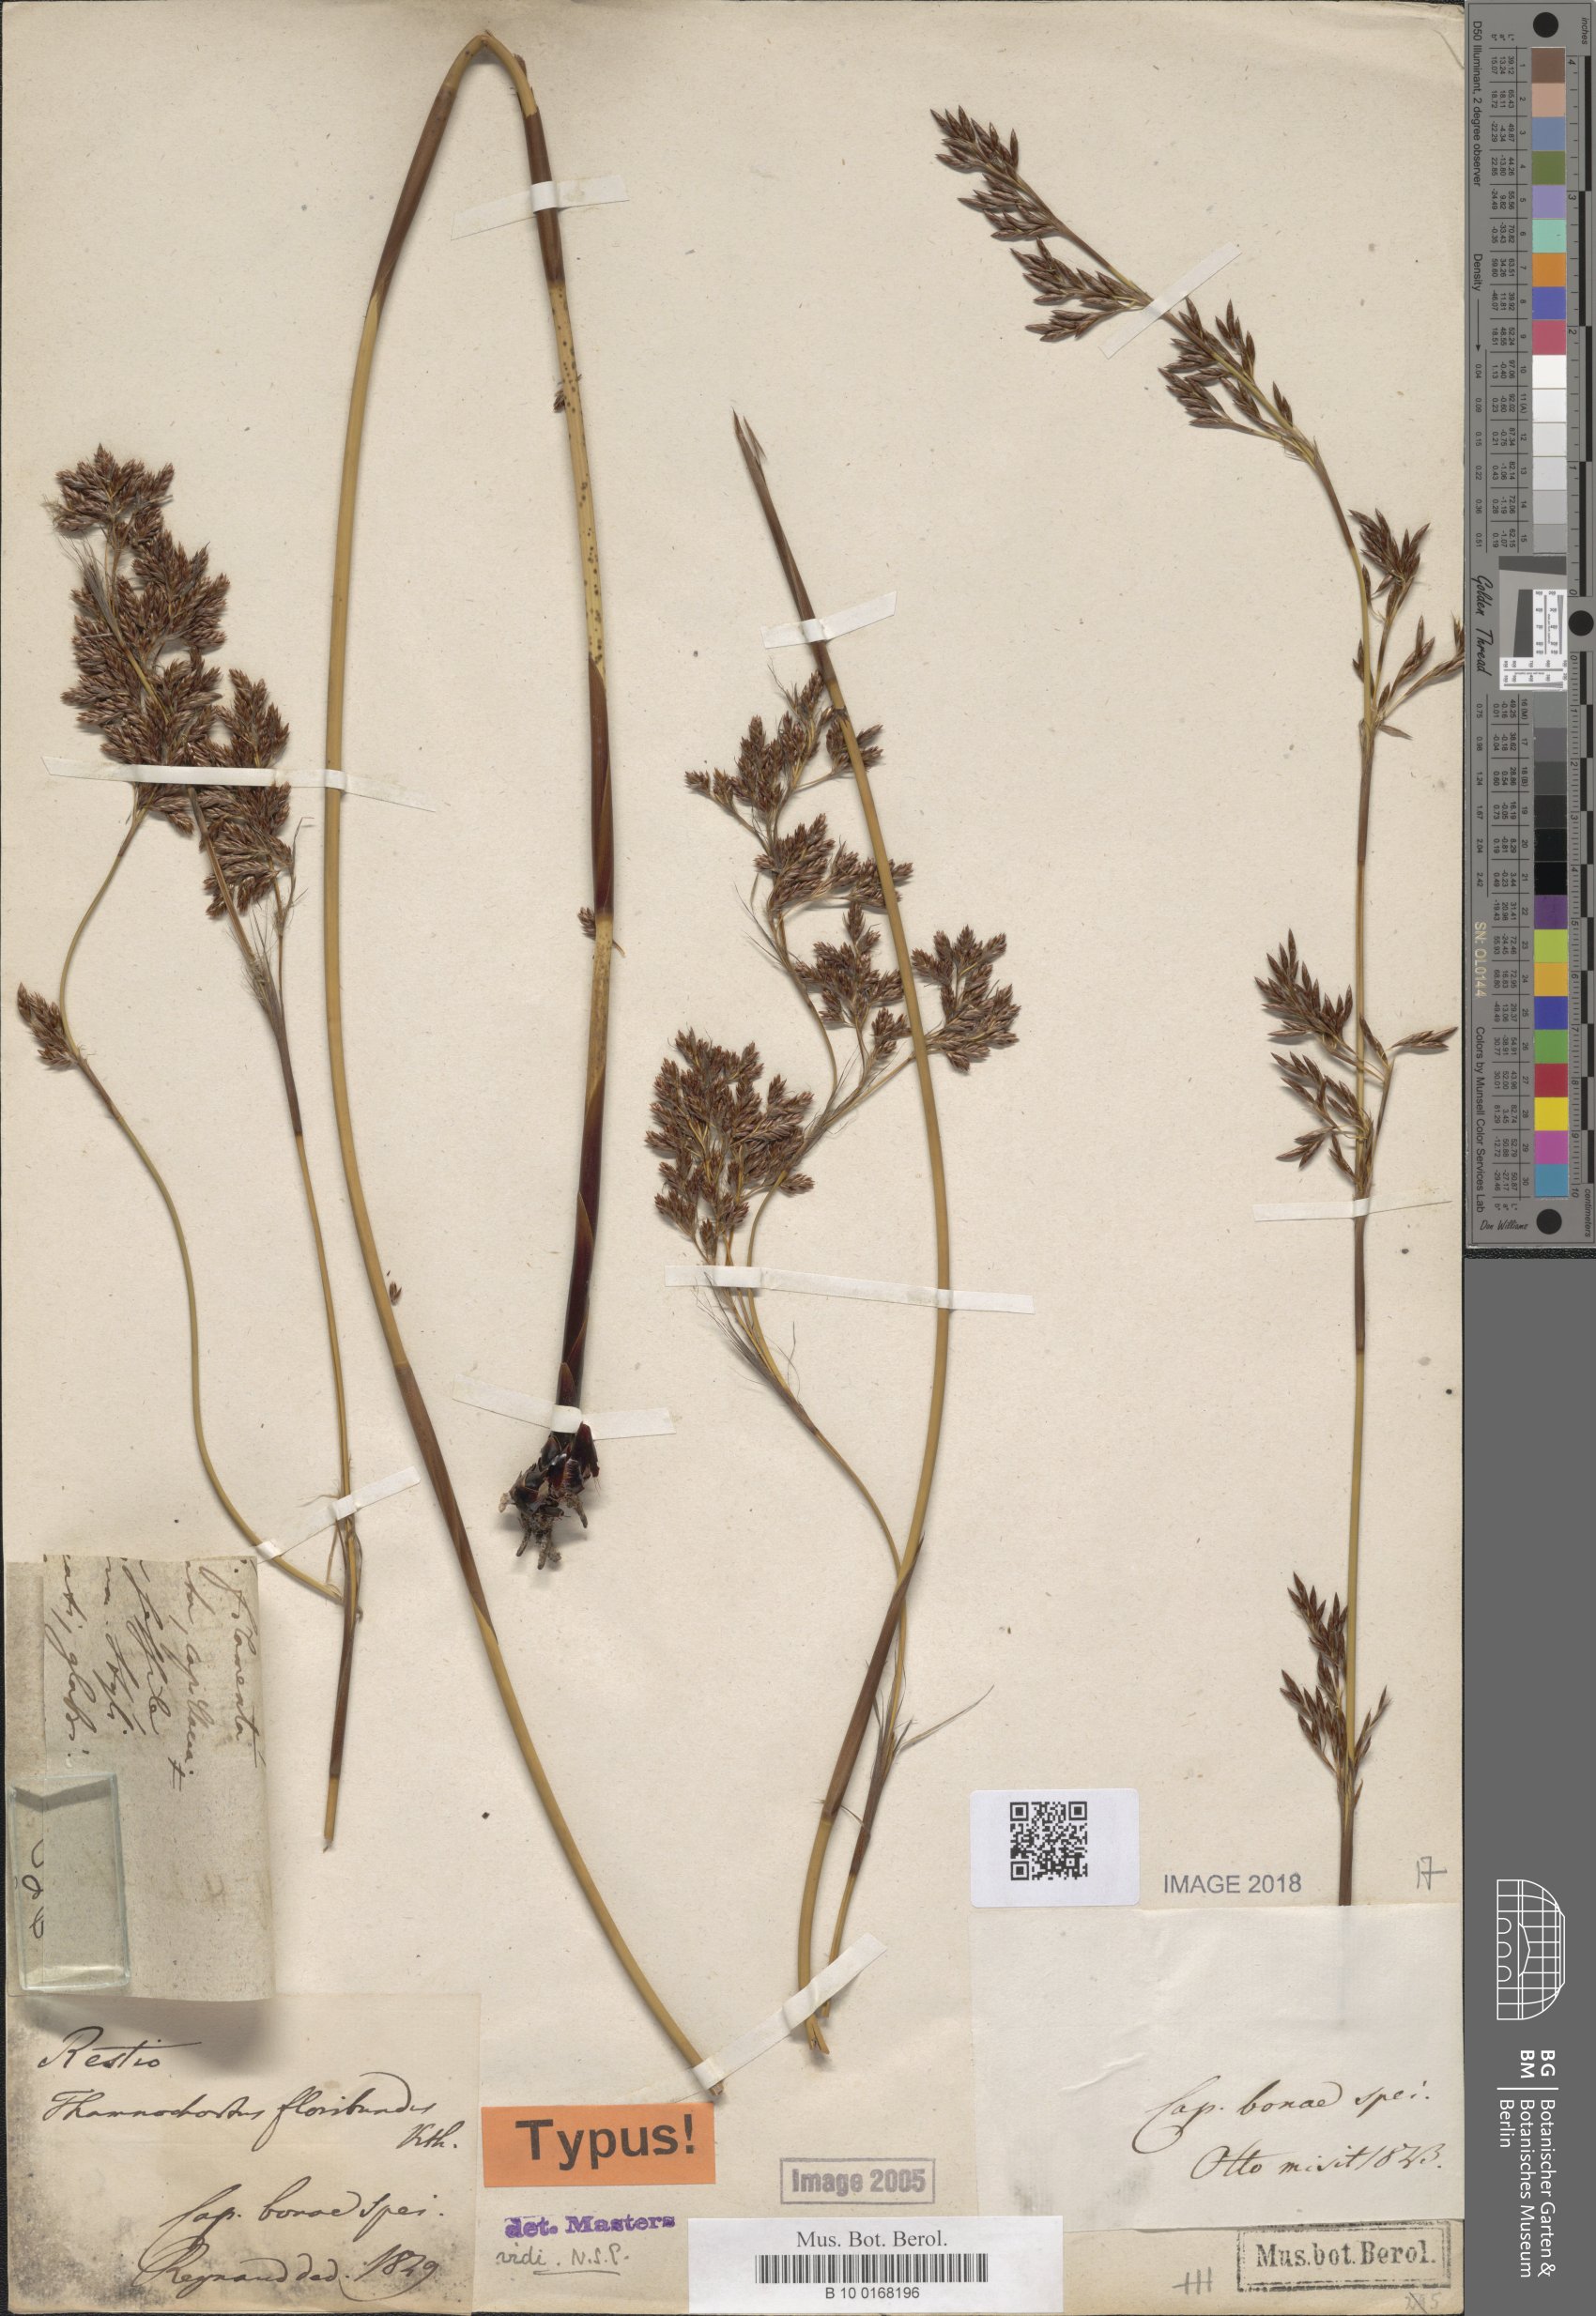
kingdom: Plantae
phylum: Tracheophyta
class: Liliopsida
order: Poales
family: Restionaceae
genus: Thamnochortus
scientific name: Thamnochortus erectus
